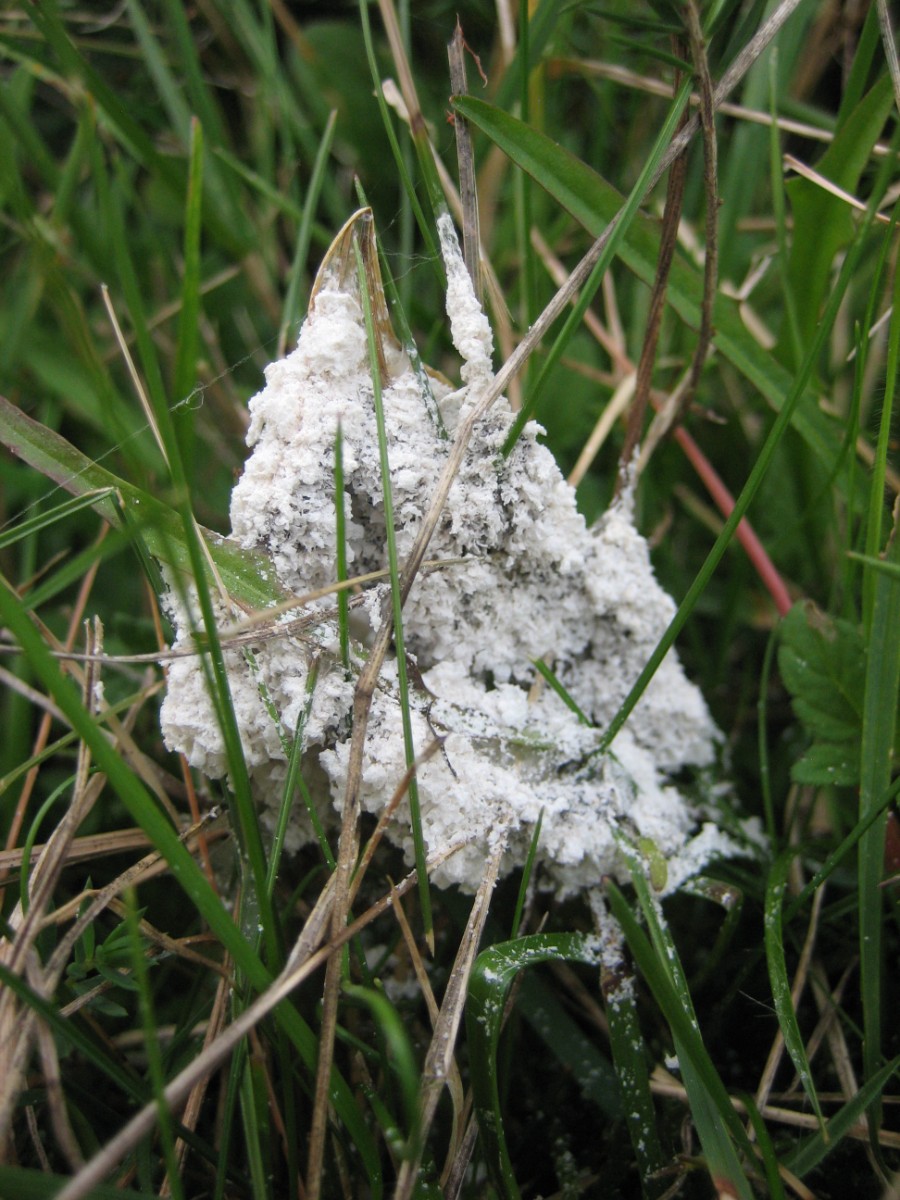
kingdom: Protozoa
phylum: Mycetozoa
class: Myxomycetes
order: Physarales
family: Physaraceae
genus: Didymium
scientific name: Didymium
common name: urteskum
